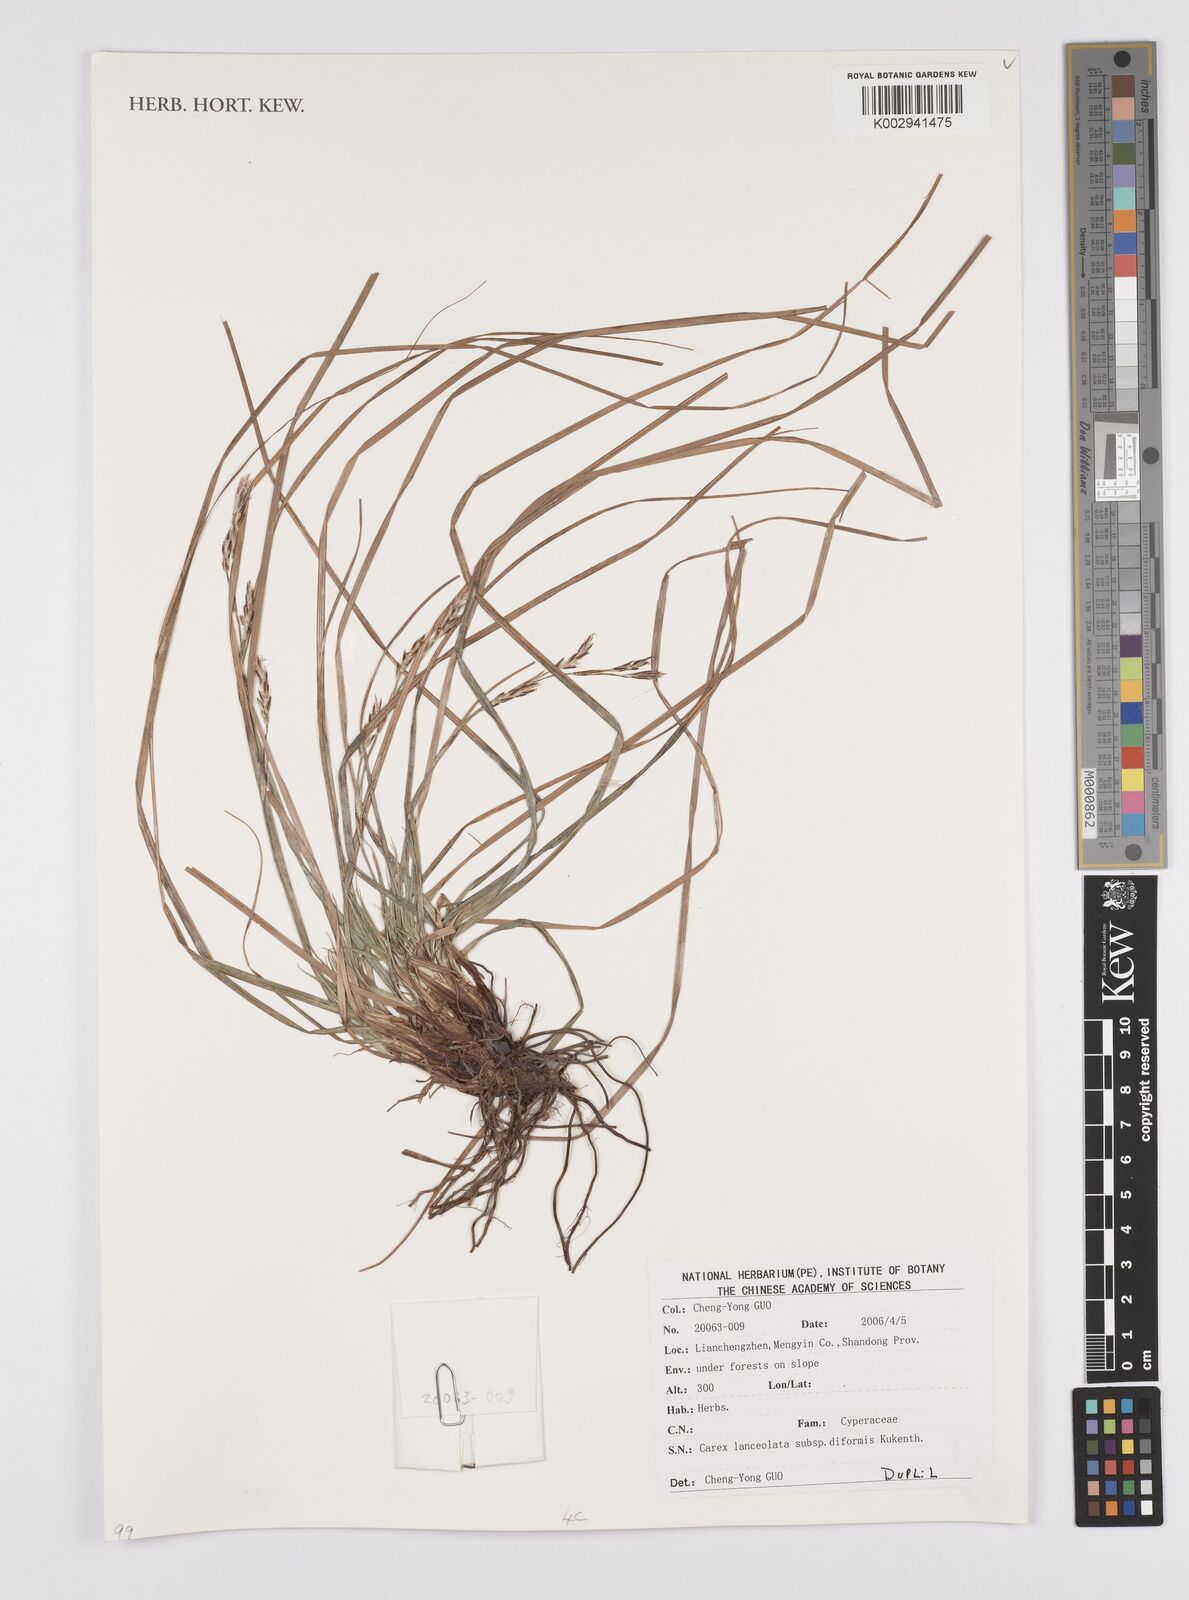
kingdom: Plantae
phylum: Tracheophyta
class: Liliopsida
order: Poales
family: Cyperaceae
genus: Carex
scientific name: Carex lanceolata
